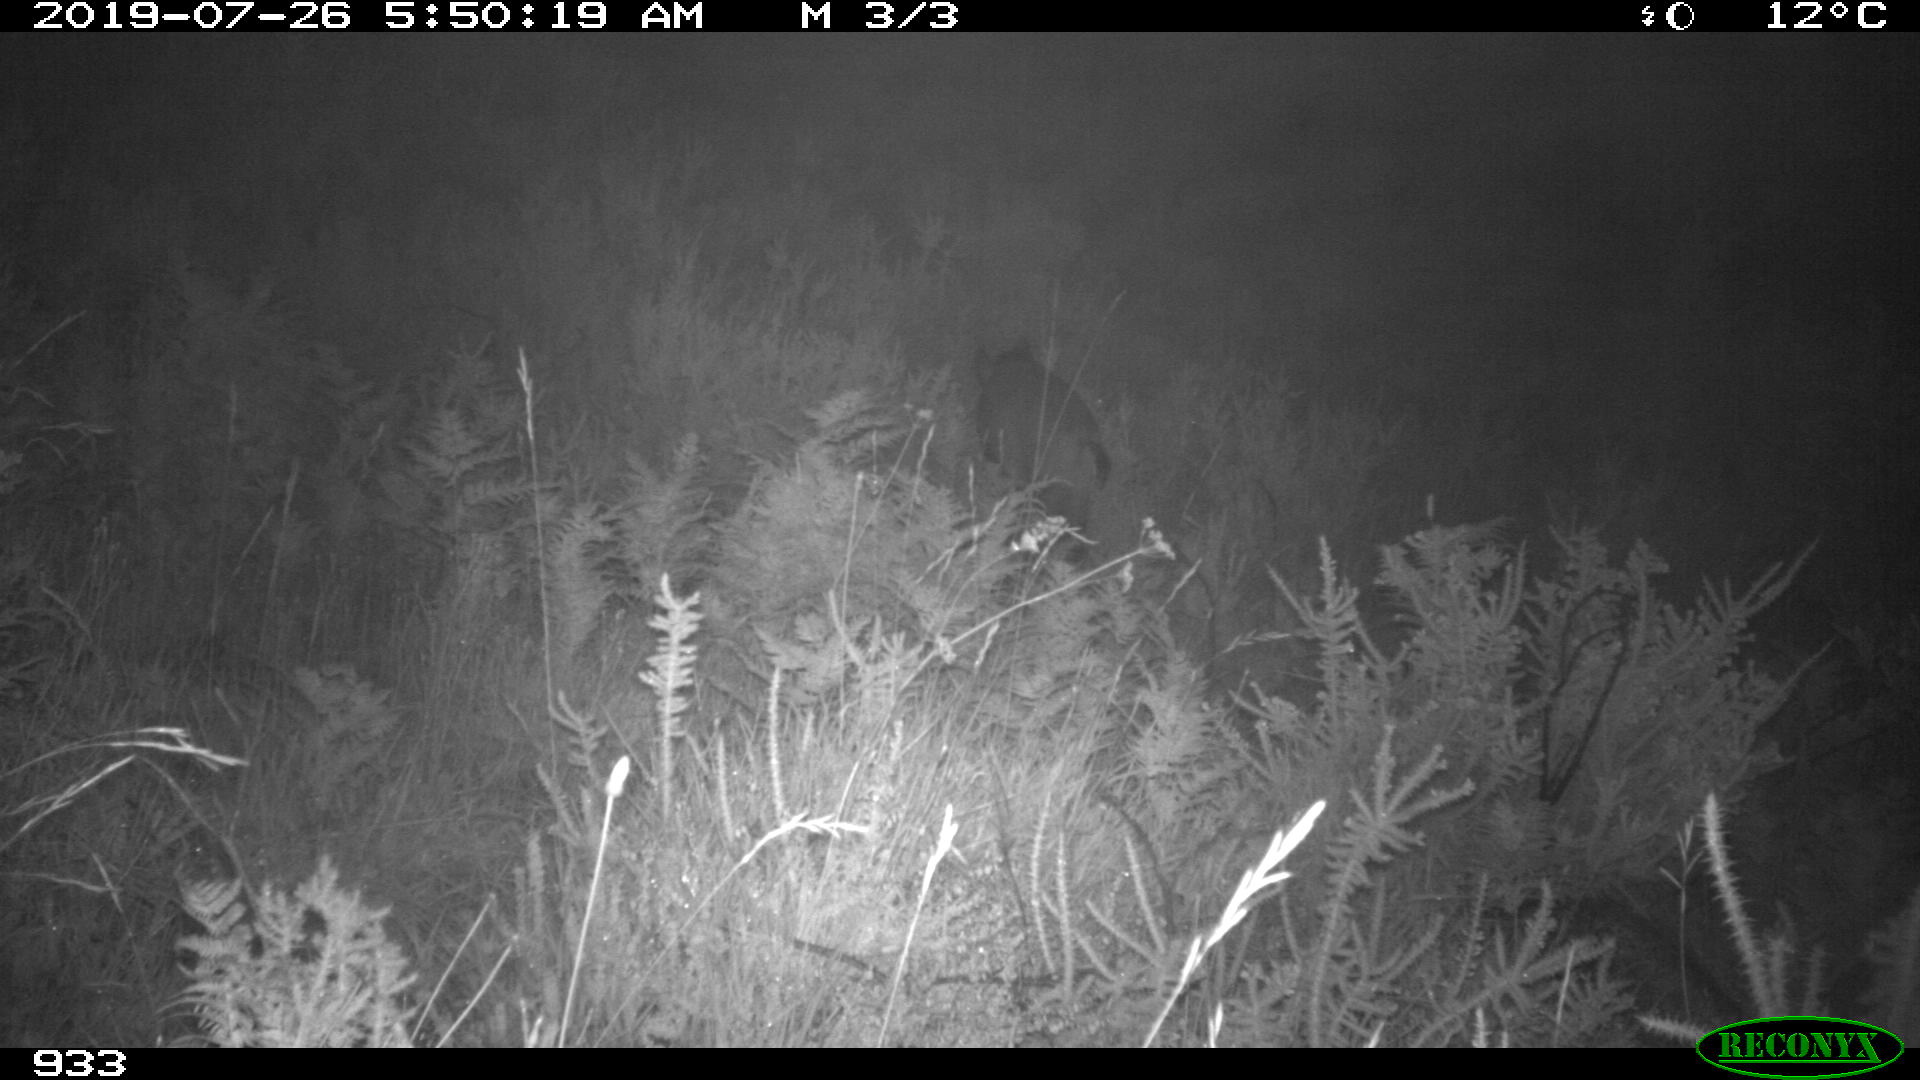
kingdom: Animalia
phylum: Chordata
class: Mammalia
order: Artiodactyla
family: Suidae
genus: Sus
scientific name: Sus scrofa
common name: Wild boar
